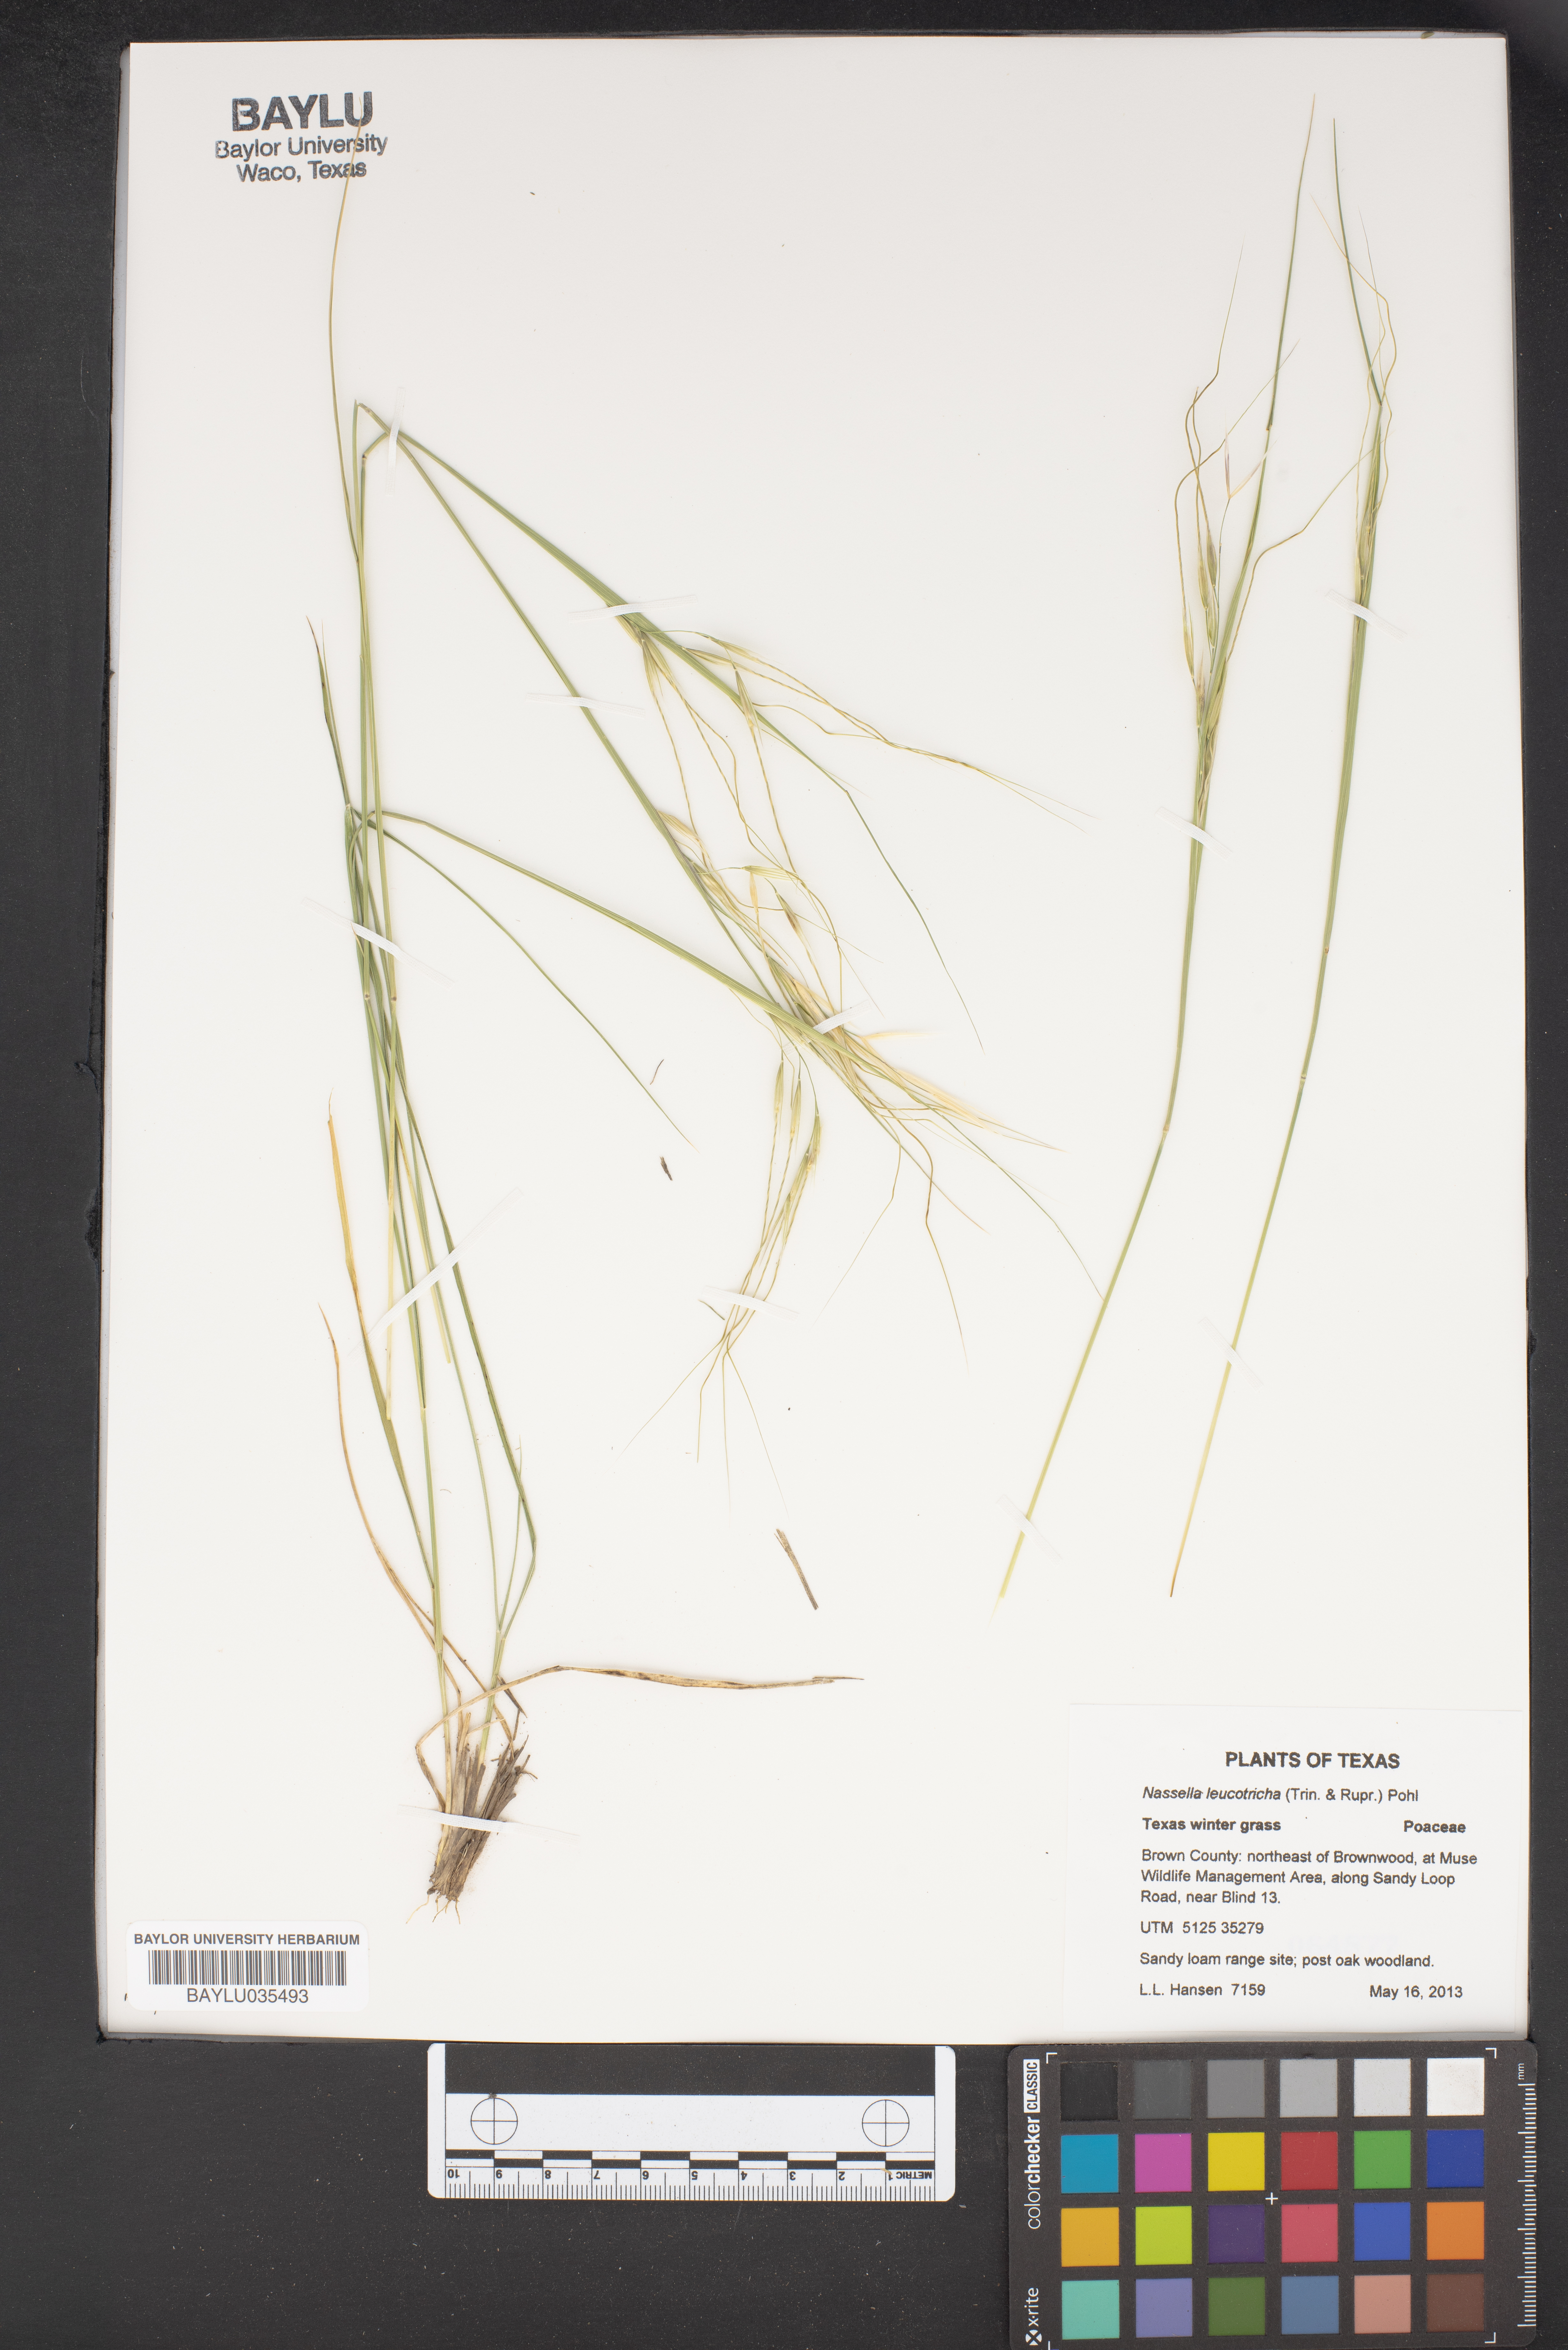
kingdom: Plantae
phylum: Tracheophyta
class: Liliopsida
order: Poales
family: Poaceae
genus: Nassella
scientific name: Nassella leucotricha
